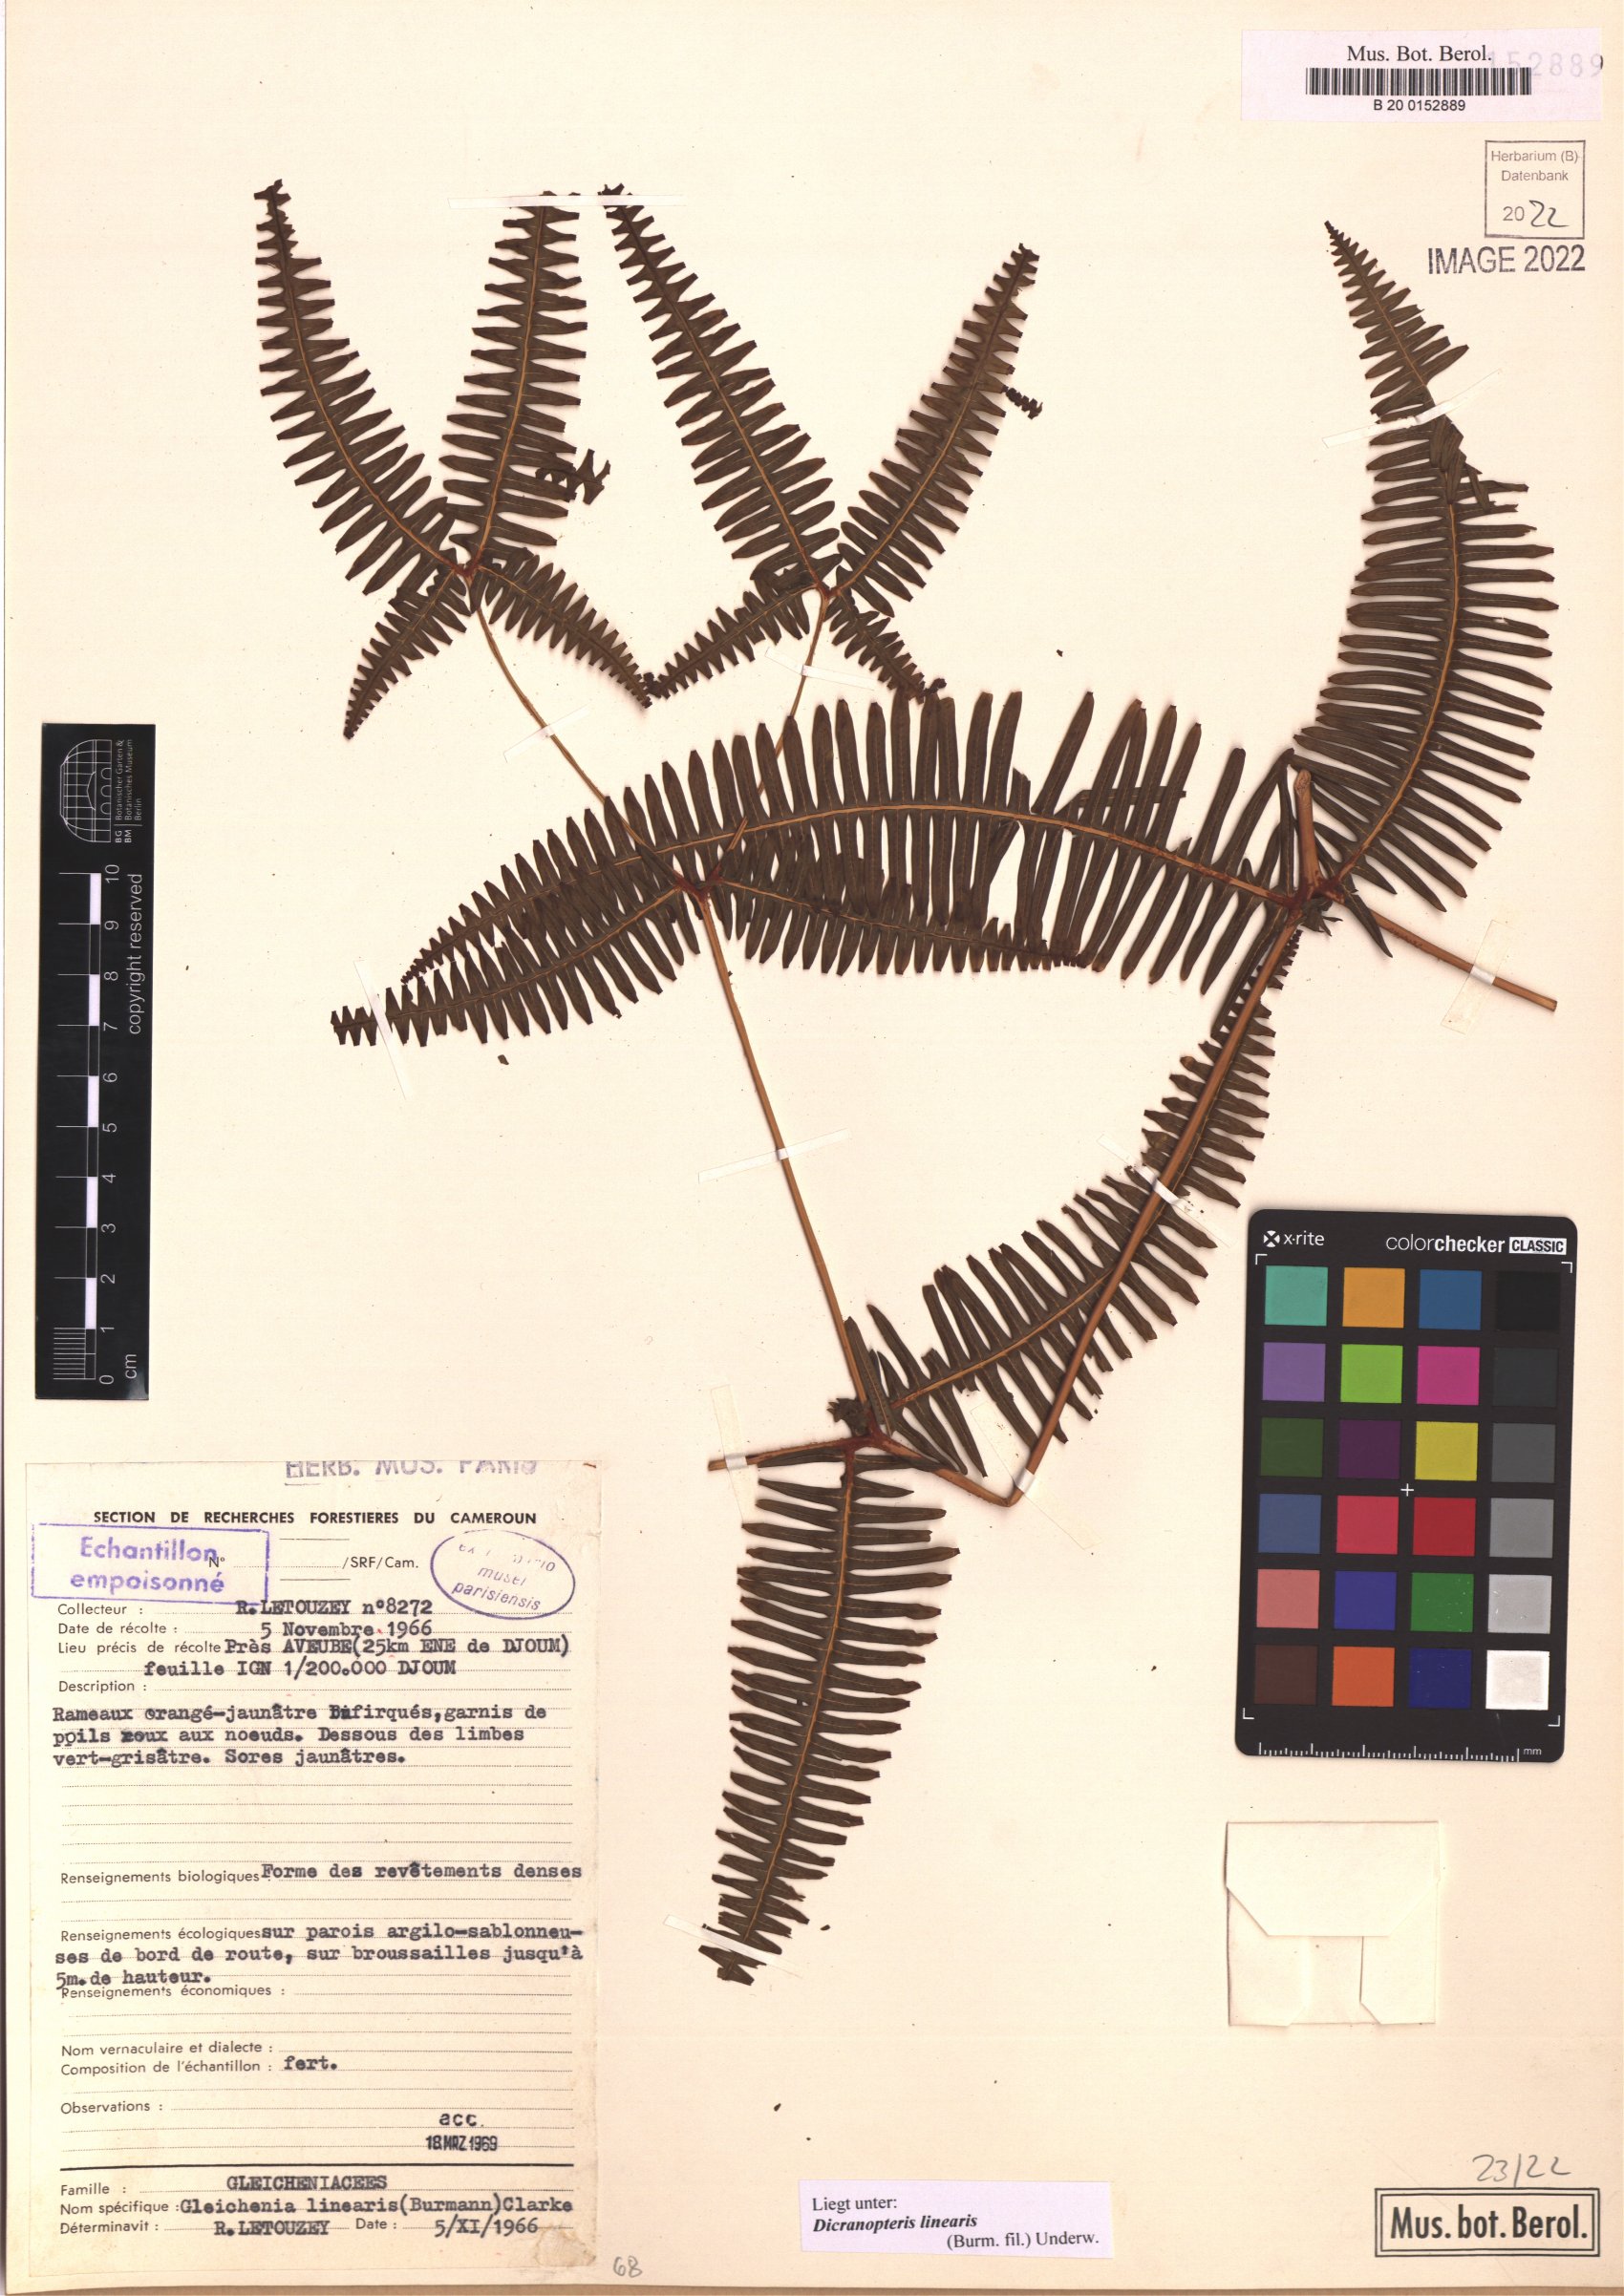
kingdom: Plantae
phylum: Tracheophyta
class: Polypodiopsida
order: Gleicheniales
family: Gleicheniaceae
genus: Dicranopteris
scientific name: Dicranopteris linearis
